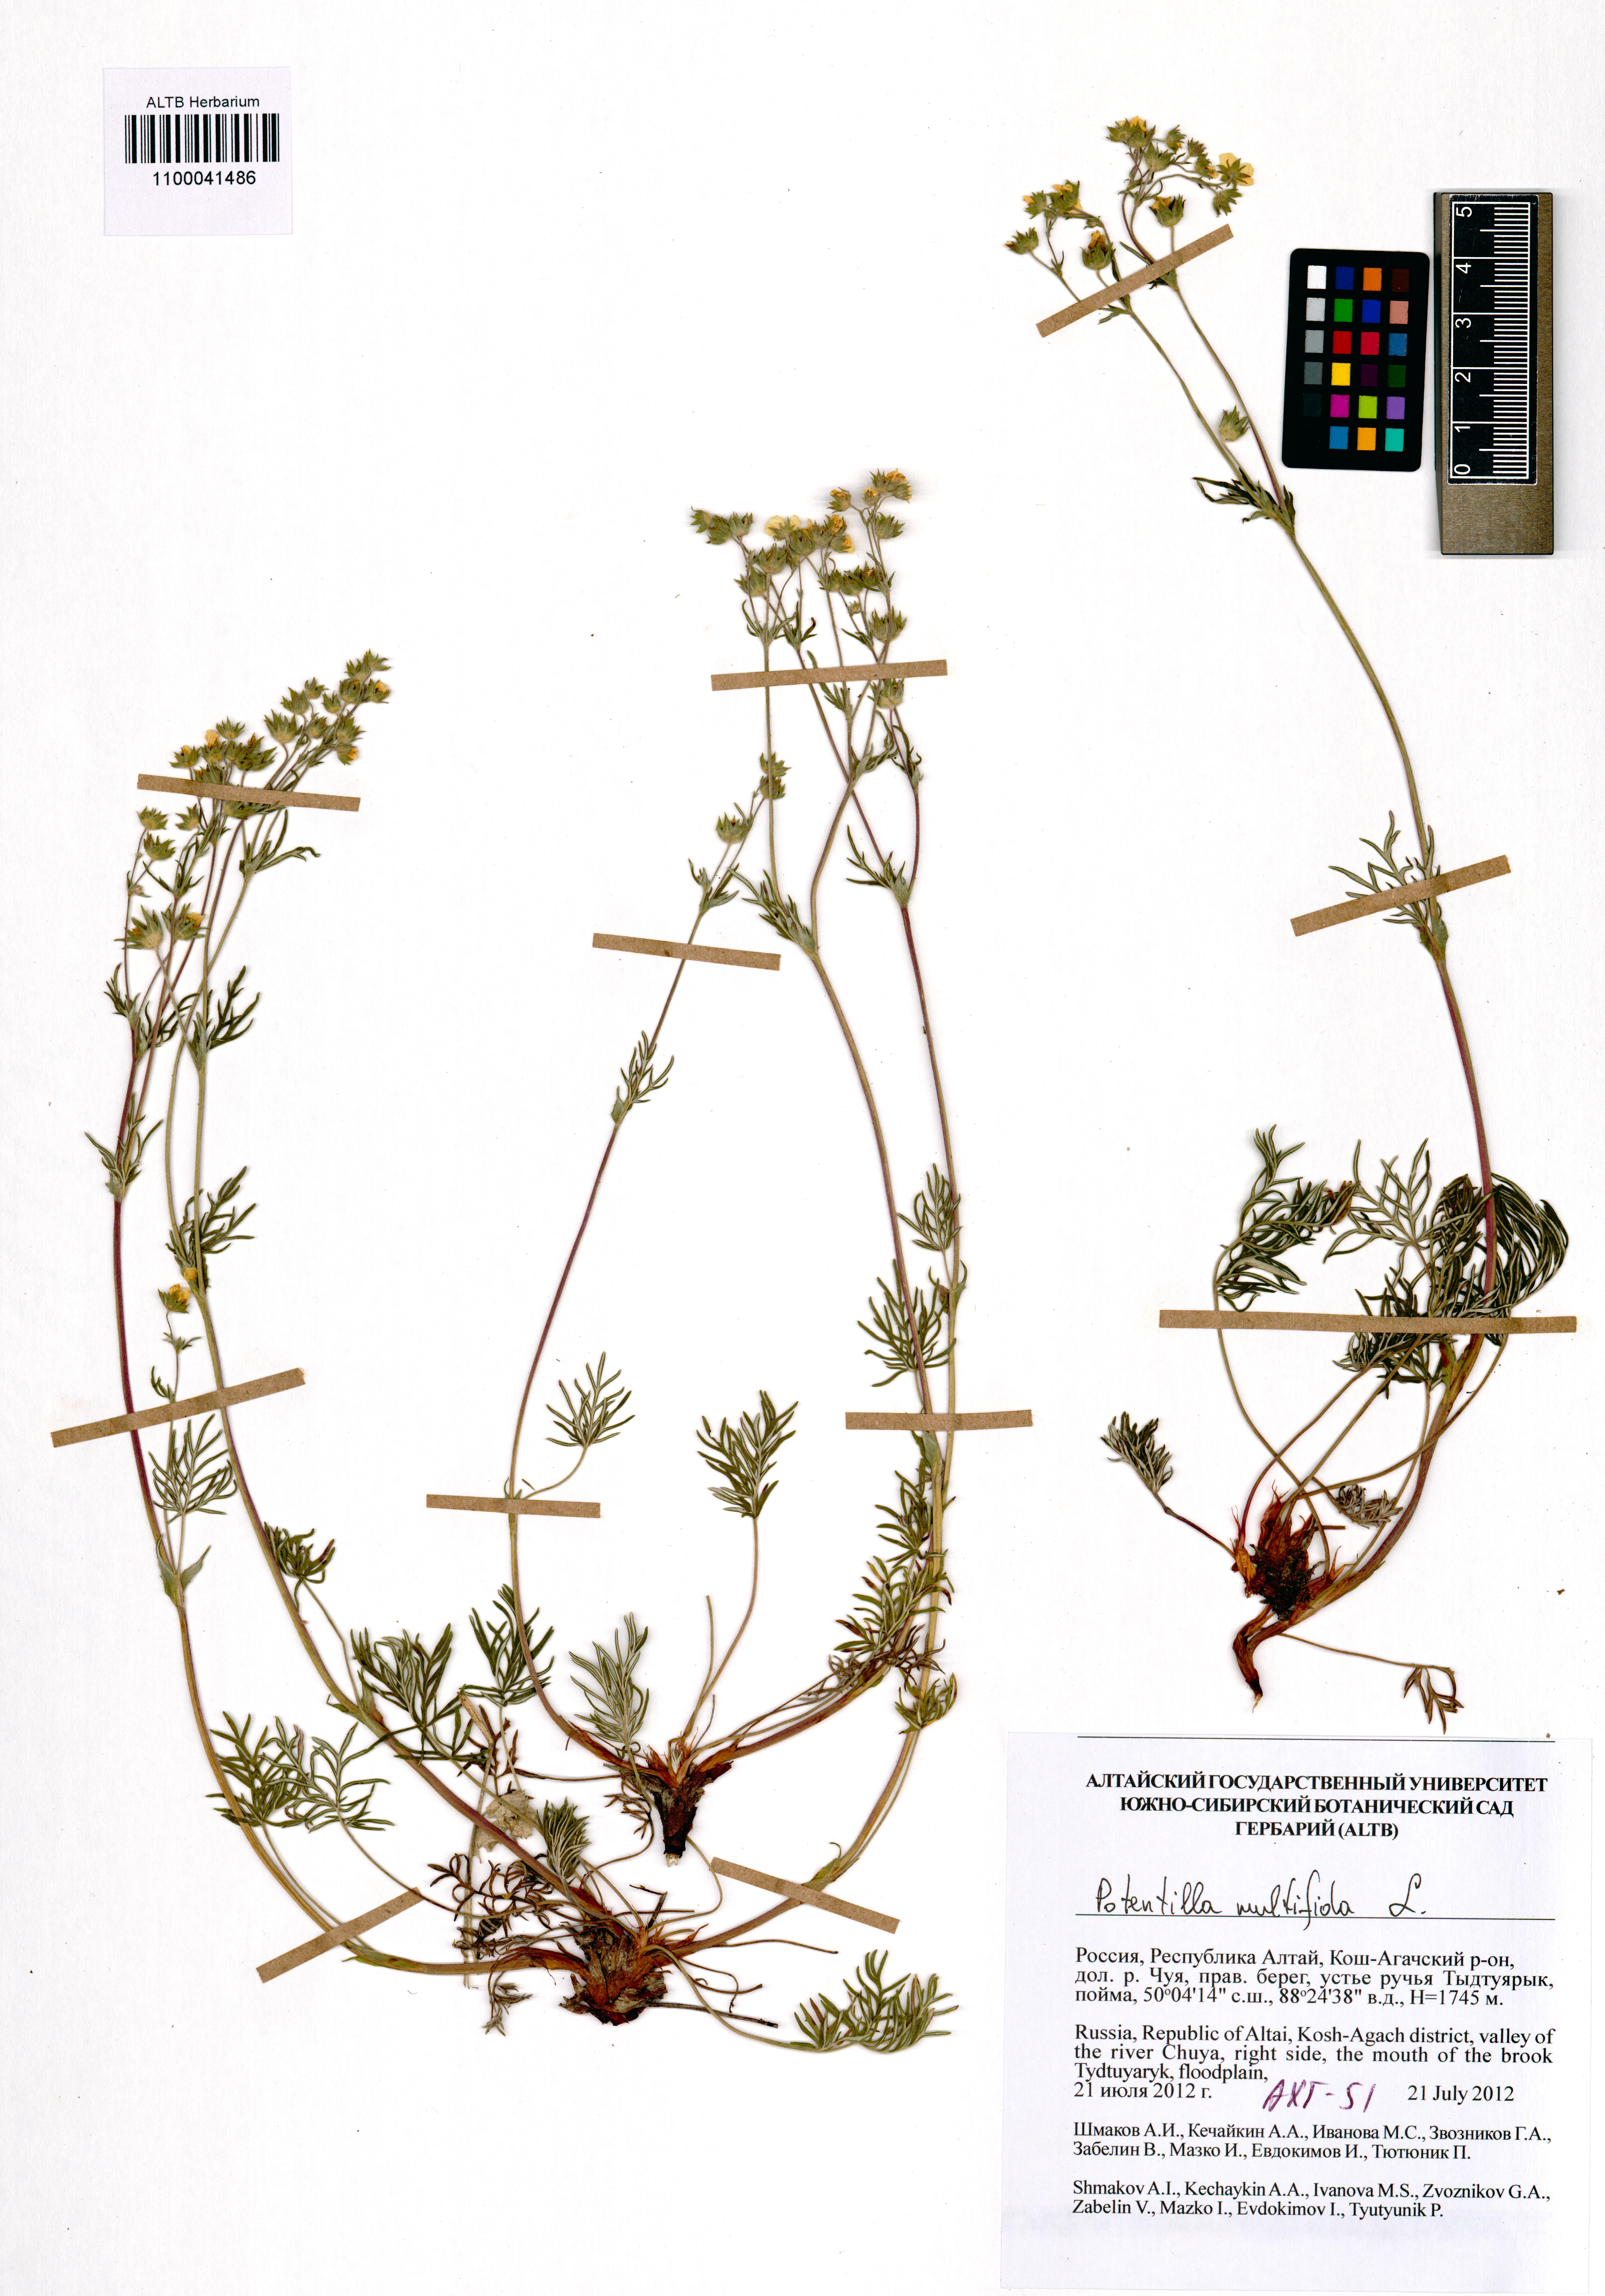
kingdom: Plantae
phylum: Tracheophyta
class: Magnoliopsida
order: Rosales
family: Rosaceae
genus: Potentilla
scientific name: Potentilla multifida
